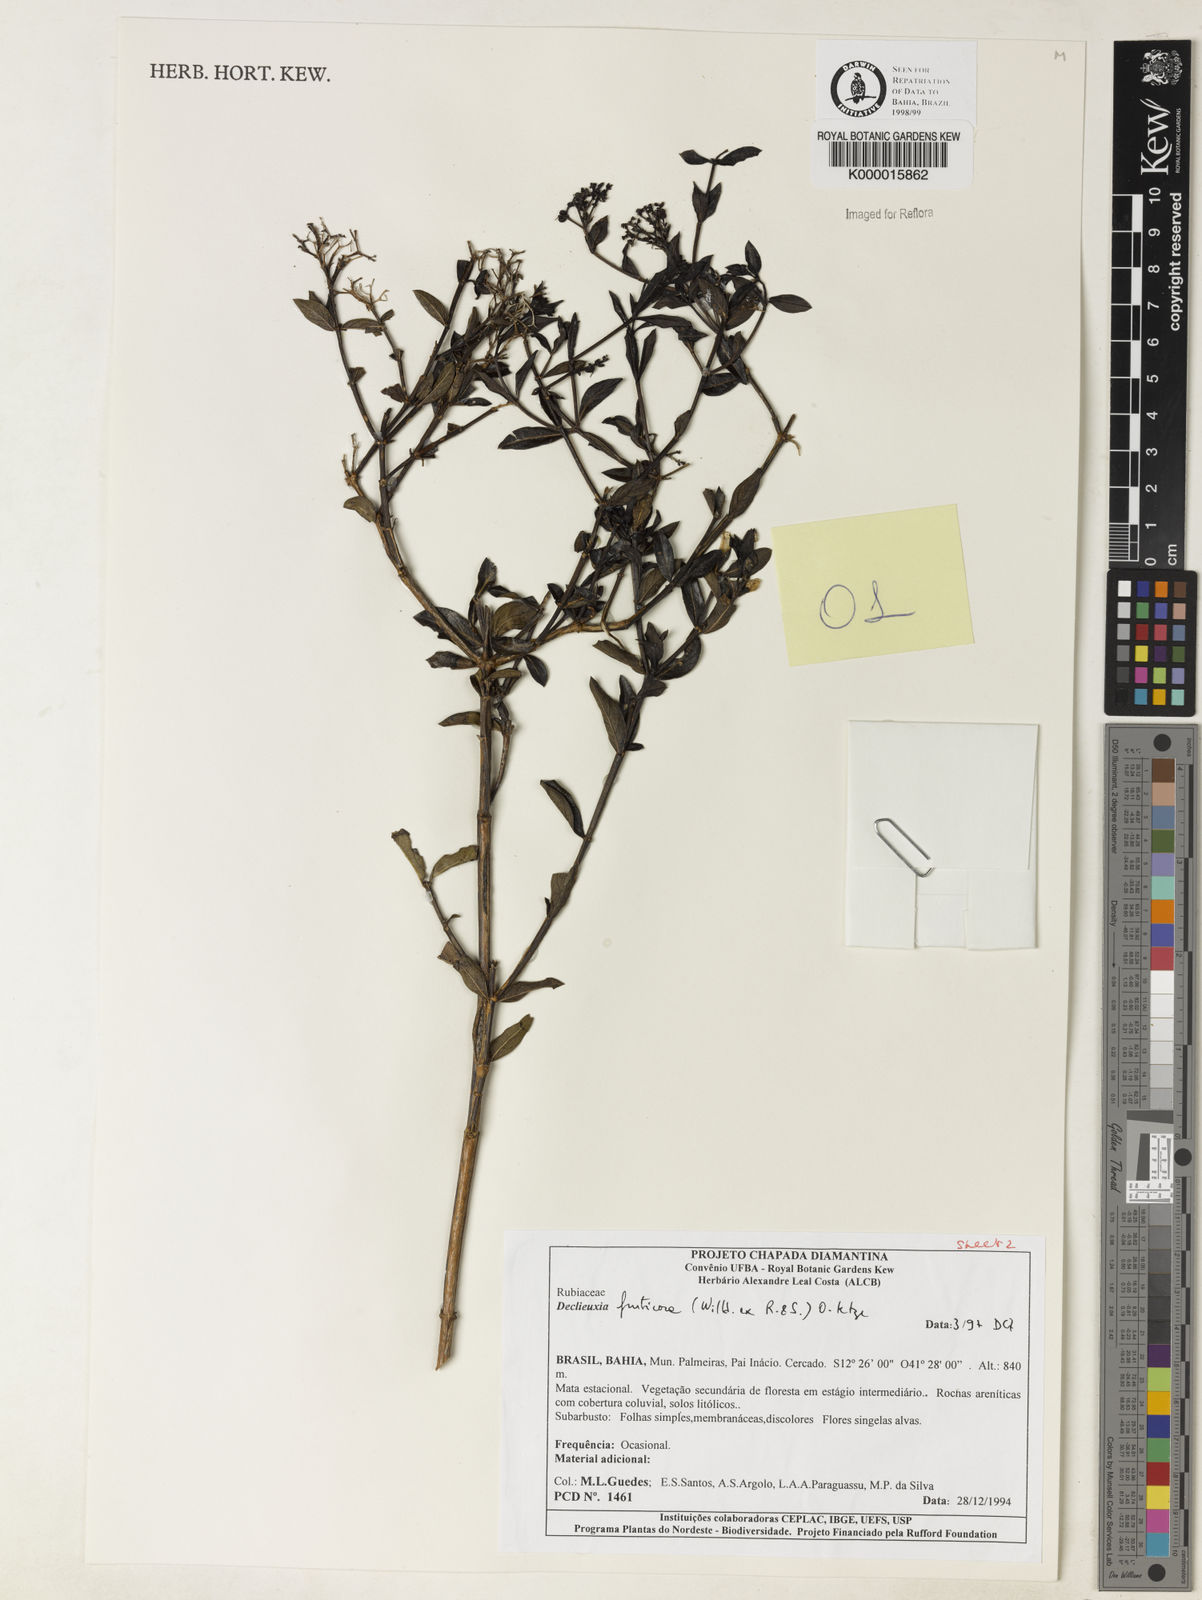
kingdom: Plantae
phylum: Tracheophyta
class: Magnoliopsida
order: Gentianales
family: Rubiaceae
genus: Declieuxia
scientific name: Declieuxia fruticosa
